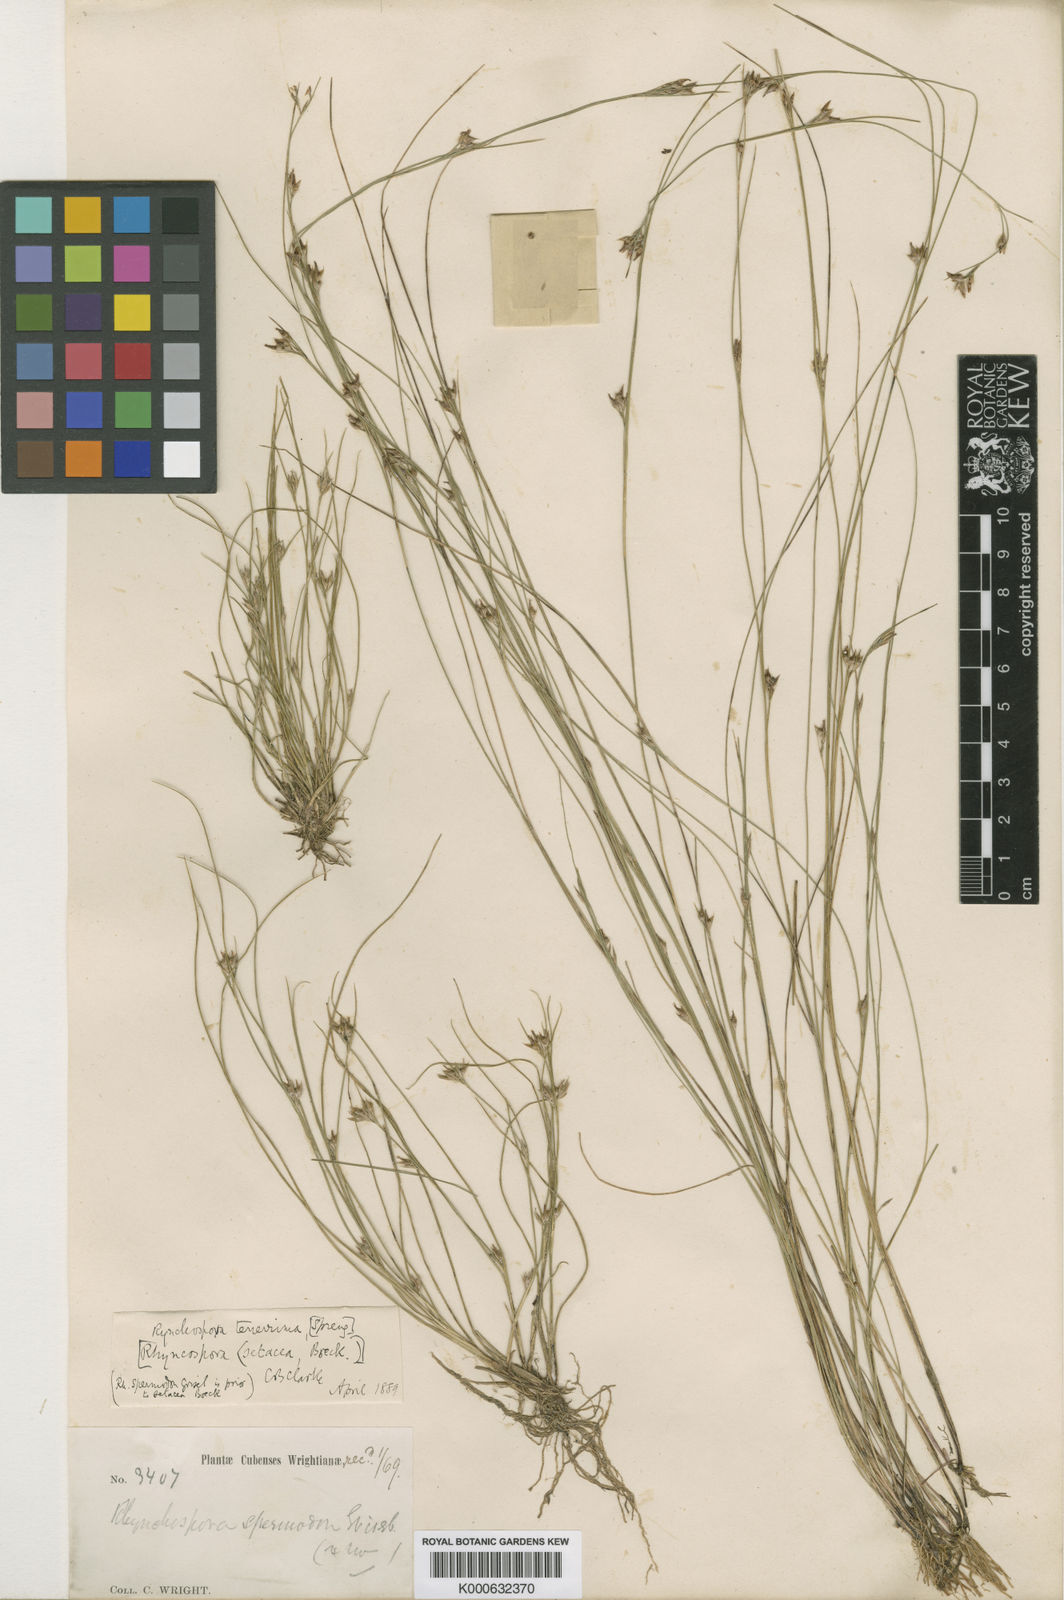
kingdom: Plantae
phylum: Tracheophyta
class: Liliopsida
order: Poales
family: Cyperaceae
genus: Rhynchospora
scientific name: Rhynchospora
